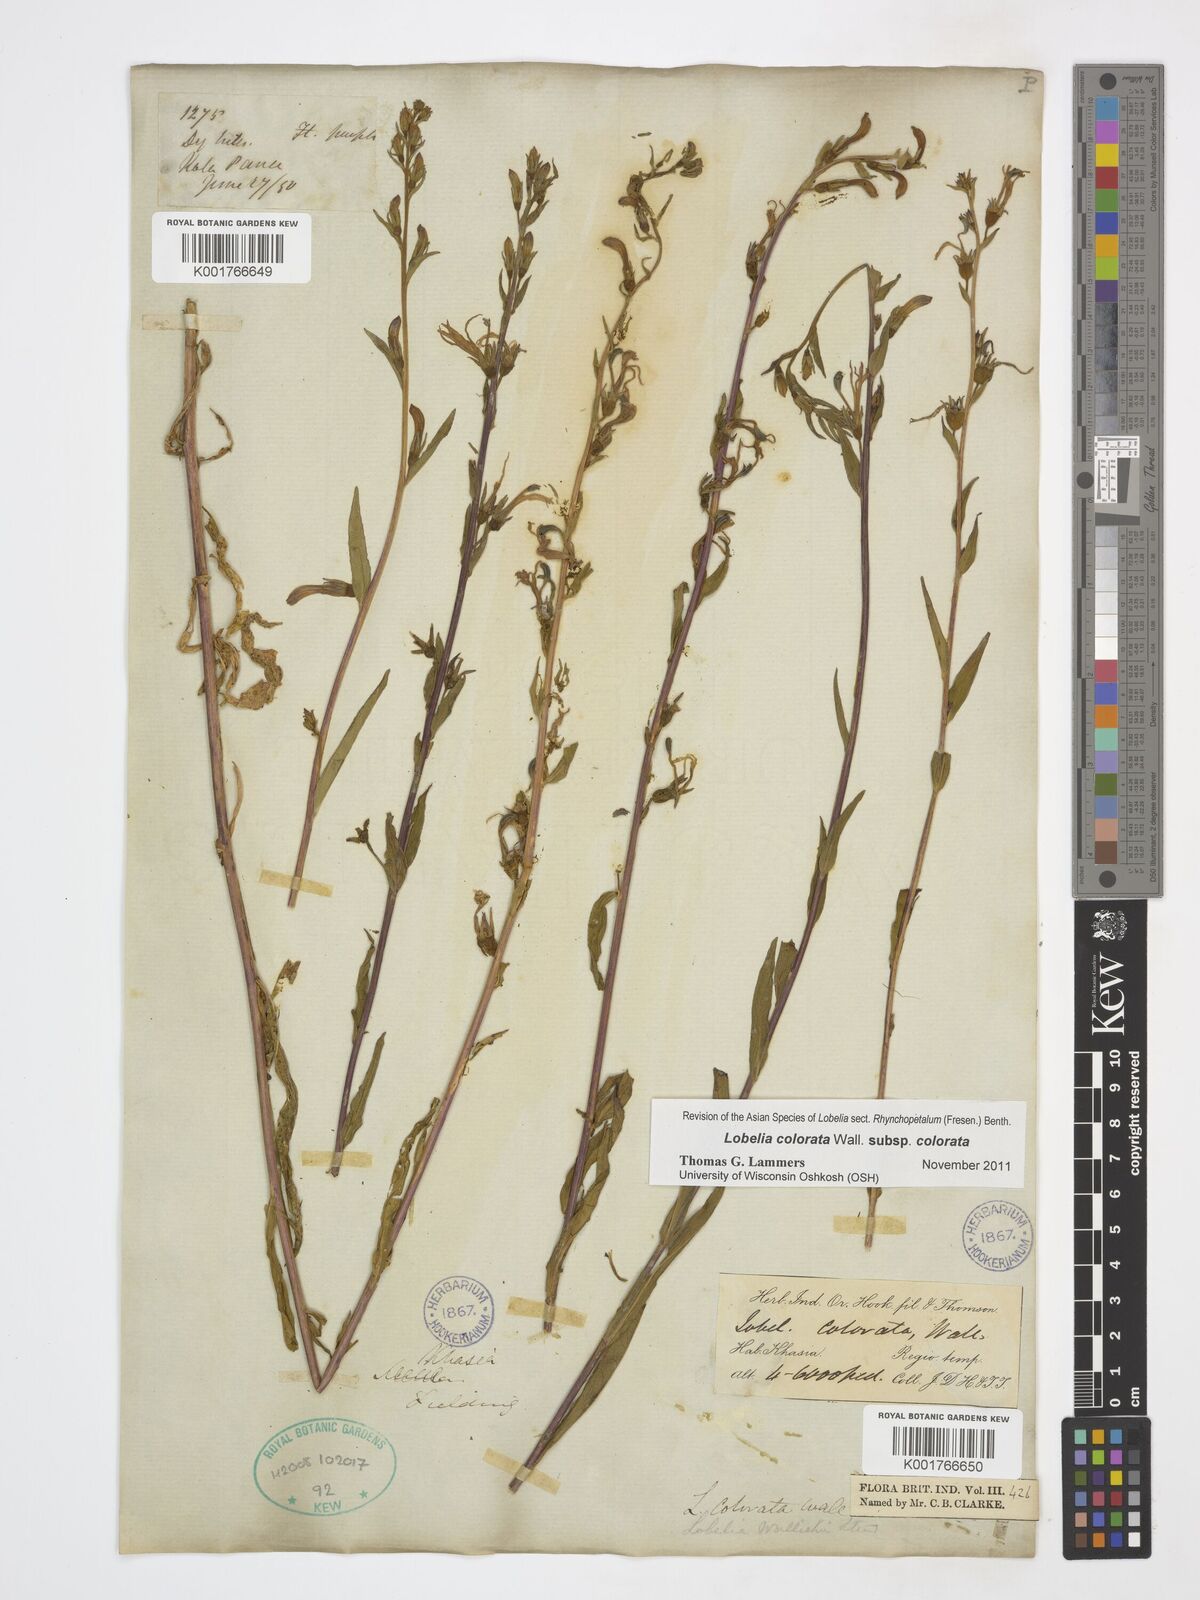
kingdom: Plantae
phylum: Tracheophyta
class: Magnoliopsida
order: Asterales
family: Campanulaceae
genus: Lobelia
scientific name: Lobelia nicotianifolia
